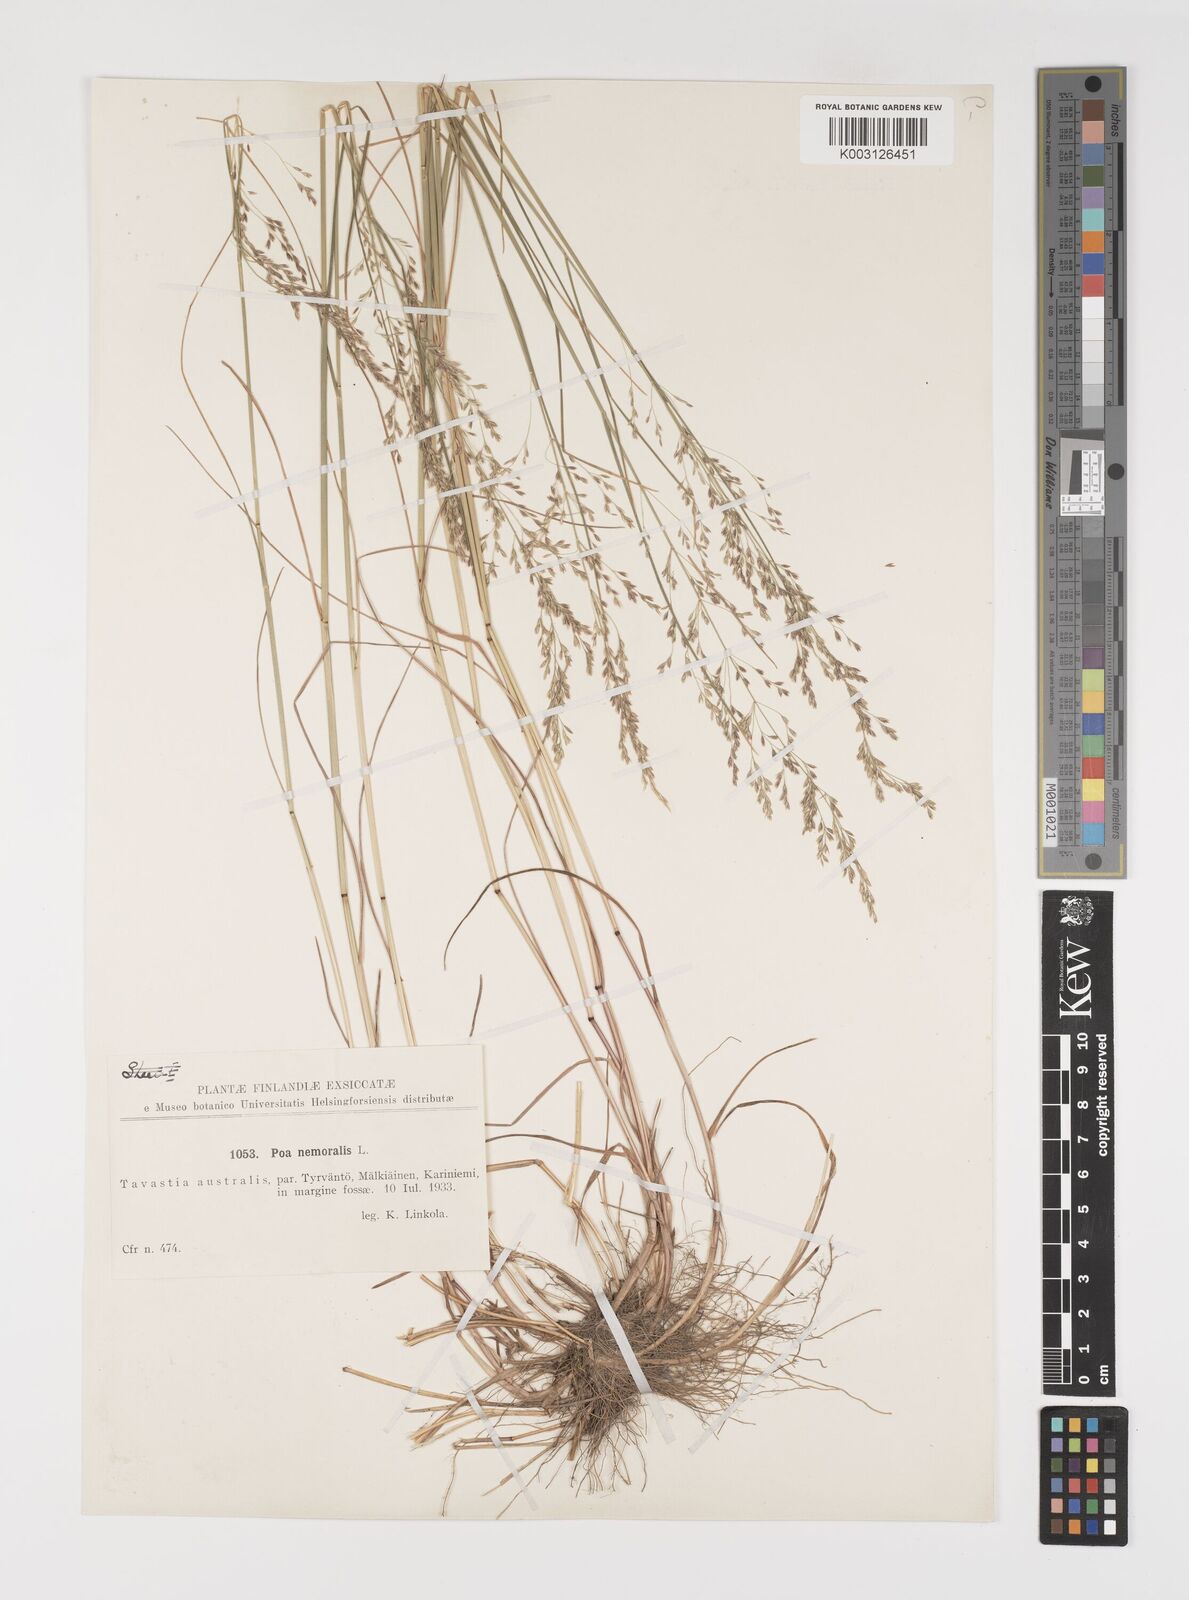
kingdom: Plantae
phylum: Tracheophyta
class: Liliopsida
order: Poales
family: Poaceae
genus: Poa
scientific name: Poa nemoralis
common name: Wood bluegrass
